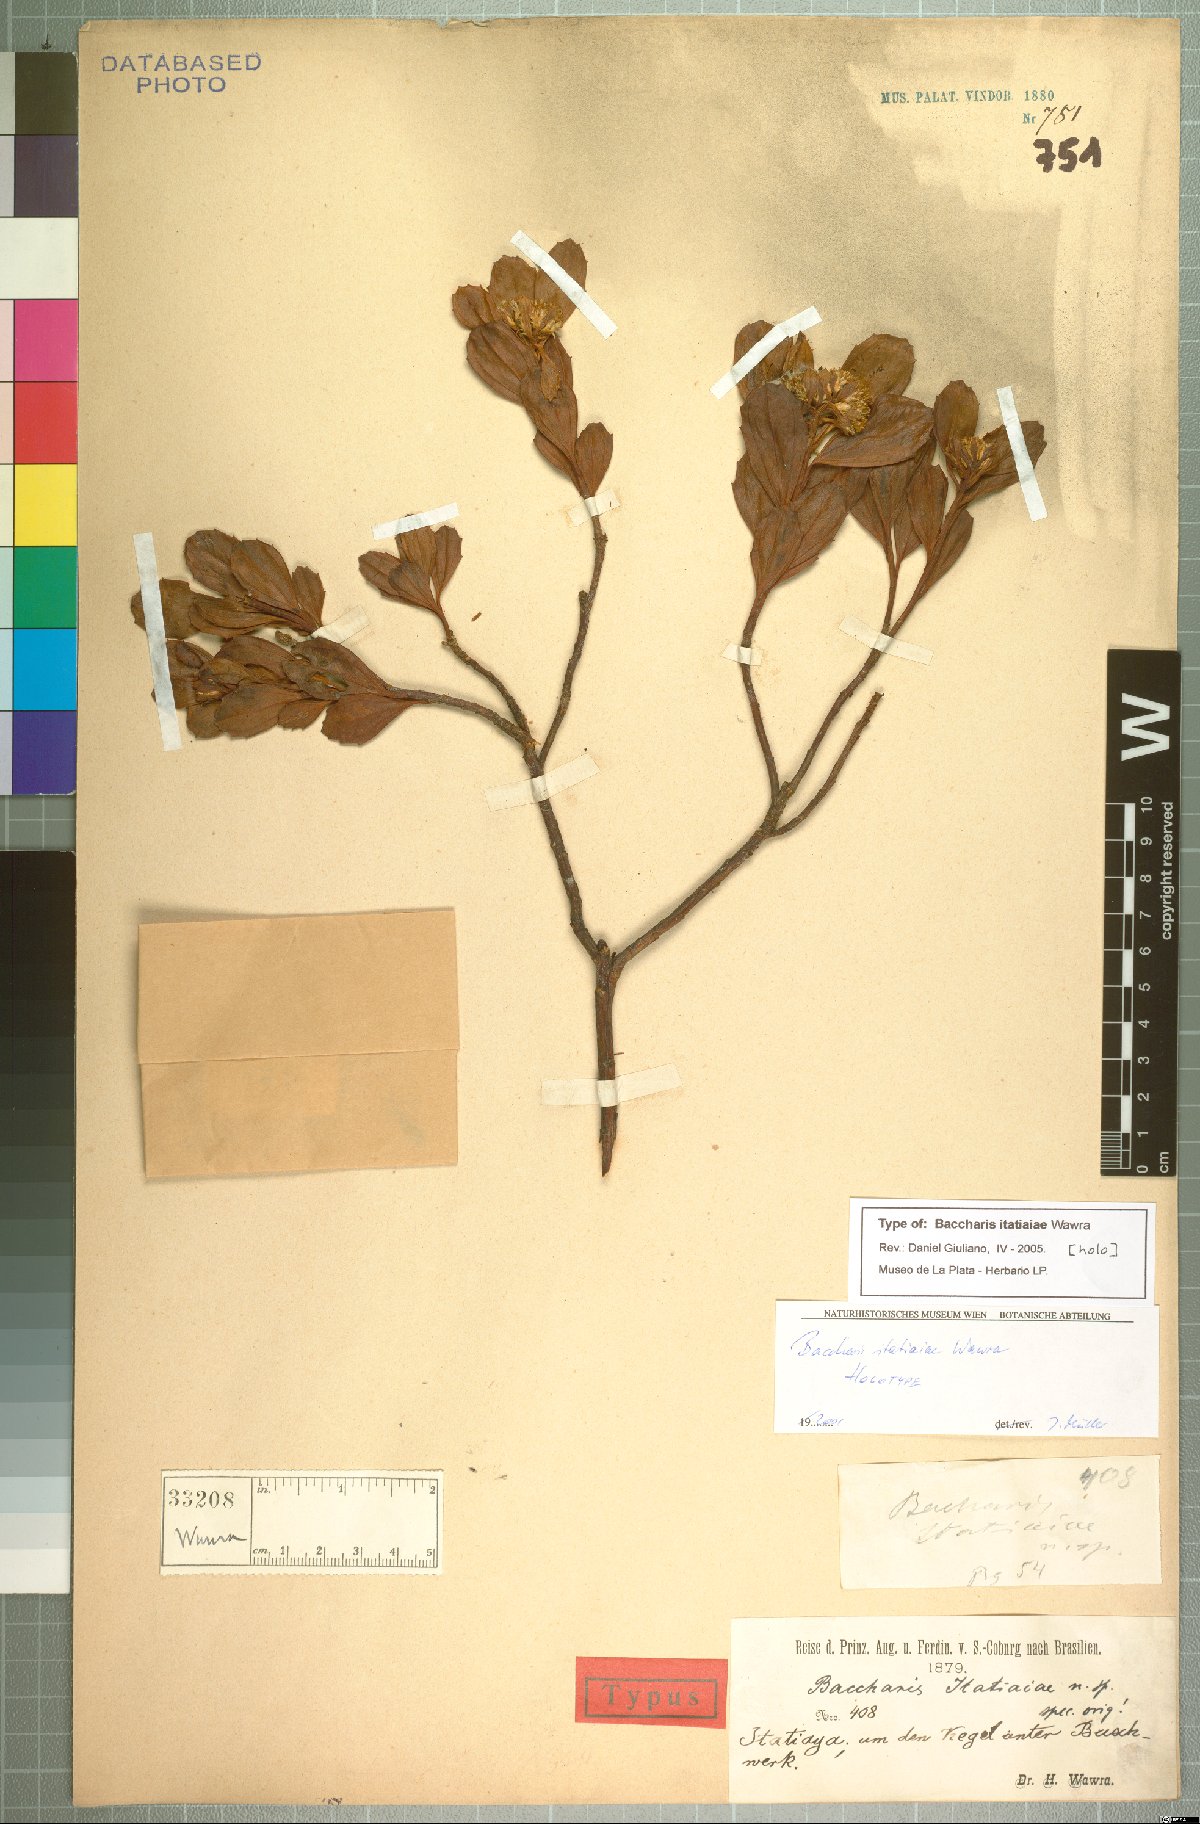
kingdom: Plantae
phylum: Tracheophyta
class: Magnoliopsida
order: Asterales
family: Asteraceae
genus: Baccharis
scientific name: Baccharis itatiaiae
